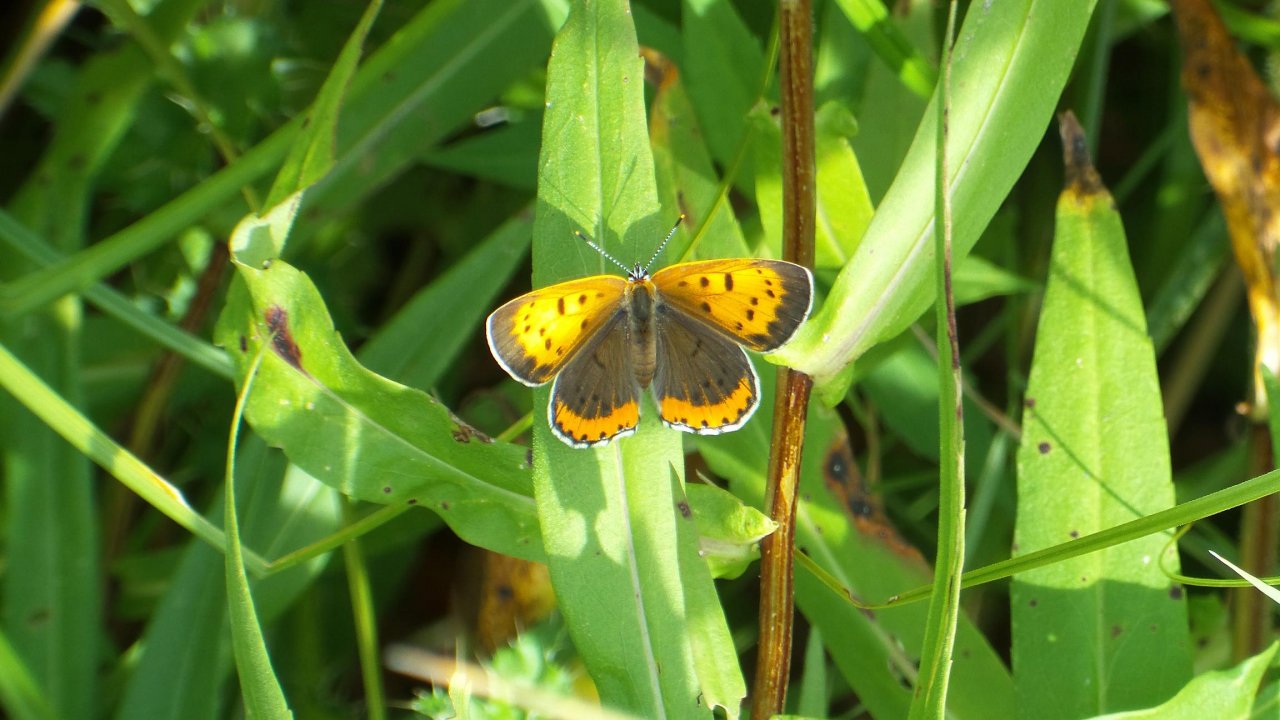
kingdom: Animalia
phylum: Arthropoda
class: Insecta
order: Lepidoptera
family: Sesiidae
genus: Sesia
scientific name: Sesia Lycaena hyllus
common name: Bronze Copper
